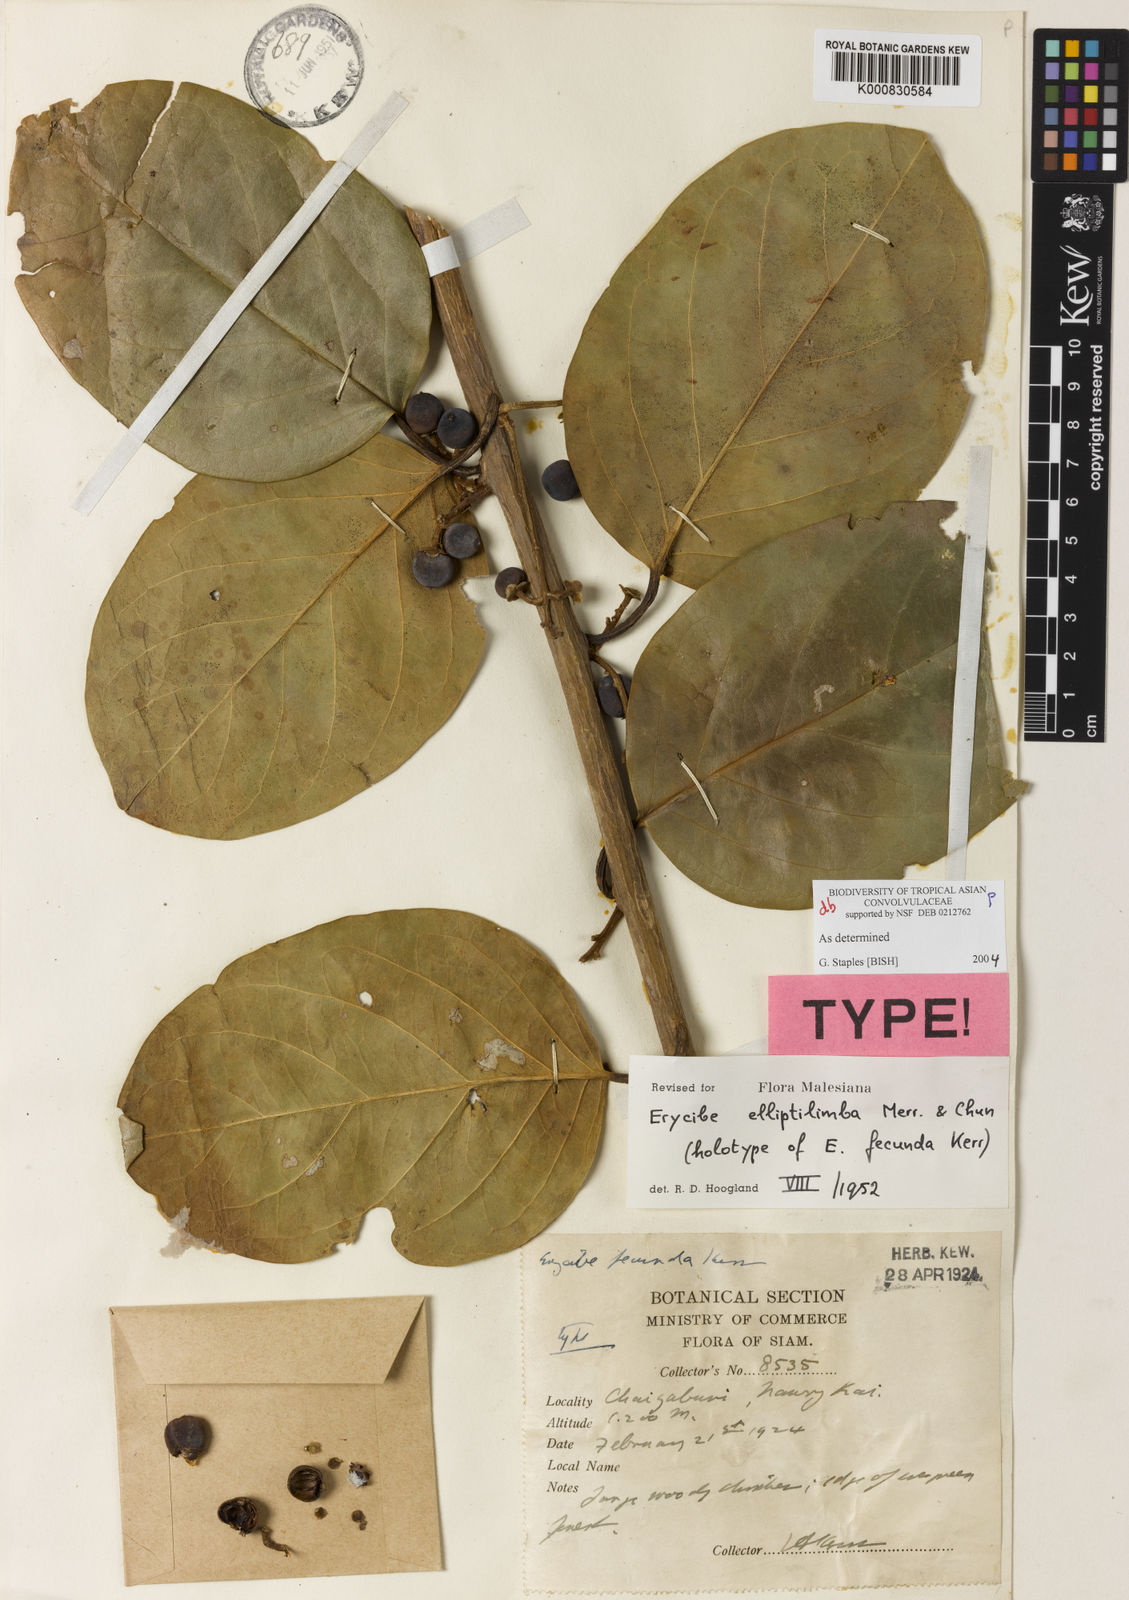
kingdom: Plantae
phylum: Tracheophyta
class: Magnoliopsida
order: Solanales
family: Convolvulaceae
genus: Erycibe
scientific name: Erycibe elliptilimba
